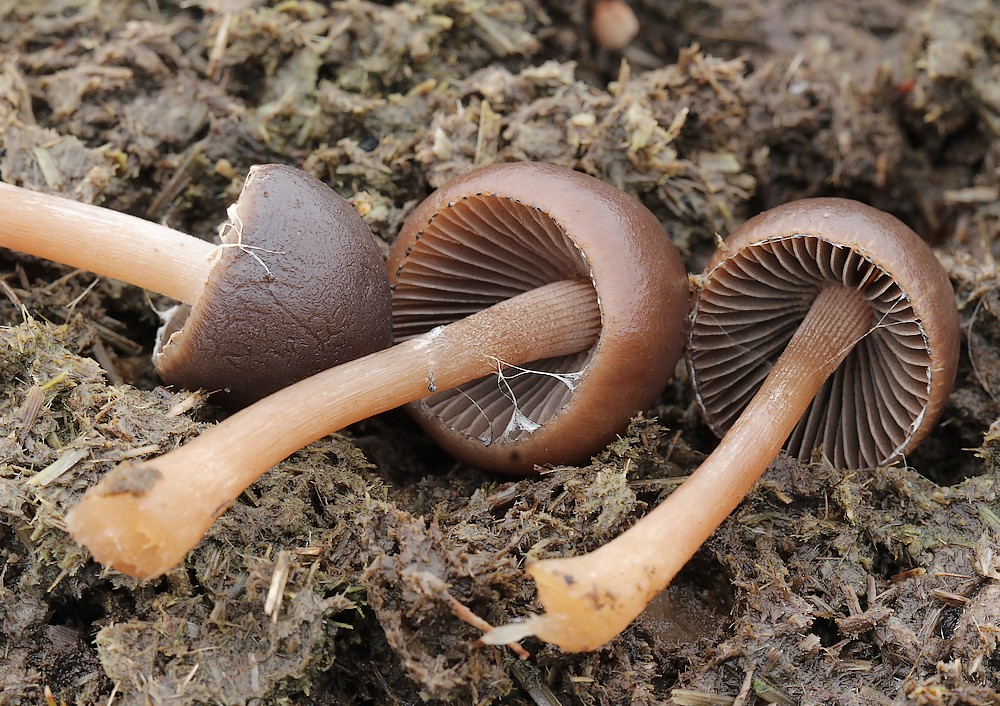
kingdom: Fungi
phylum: Basidiomycota
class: Agaricomycetes
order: Agaricales
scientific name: Agaricales
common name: champignonordenen
